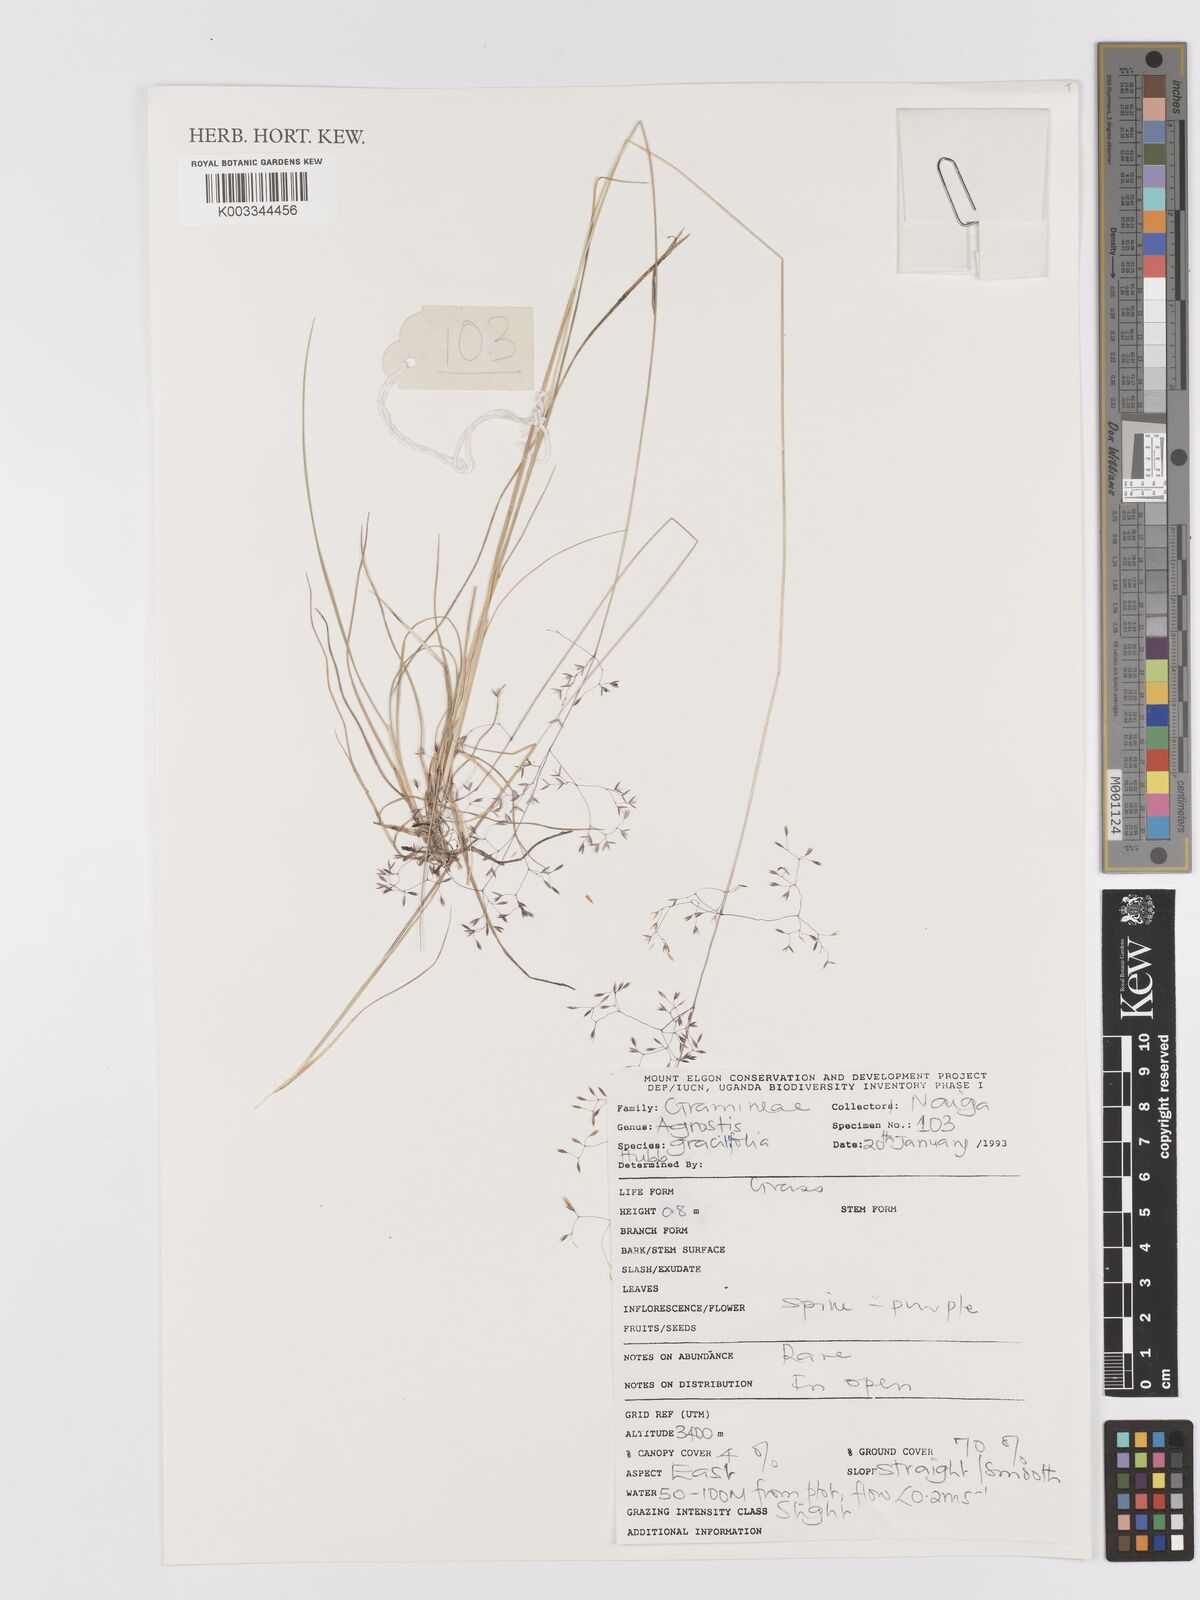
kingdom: Plantae
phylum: Tracheophyta
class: Liliopsida
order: Poales
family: Poaceae
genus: Agrostis
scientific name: Agrostis gracilifolia
